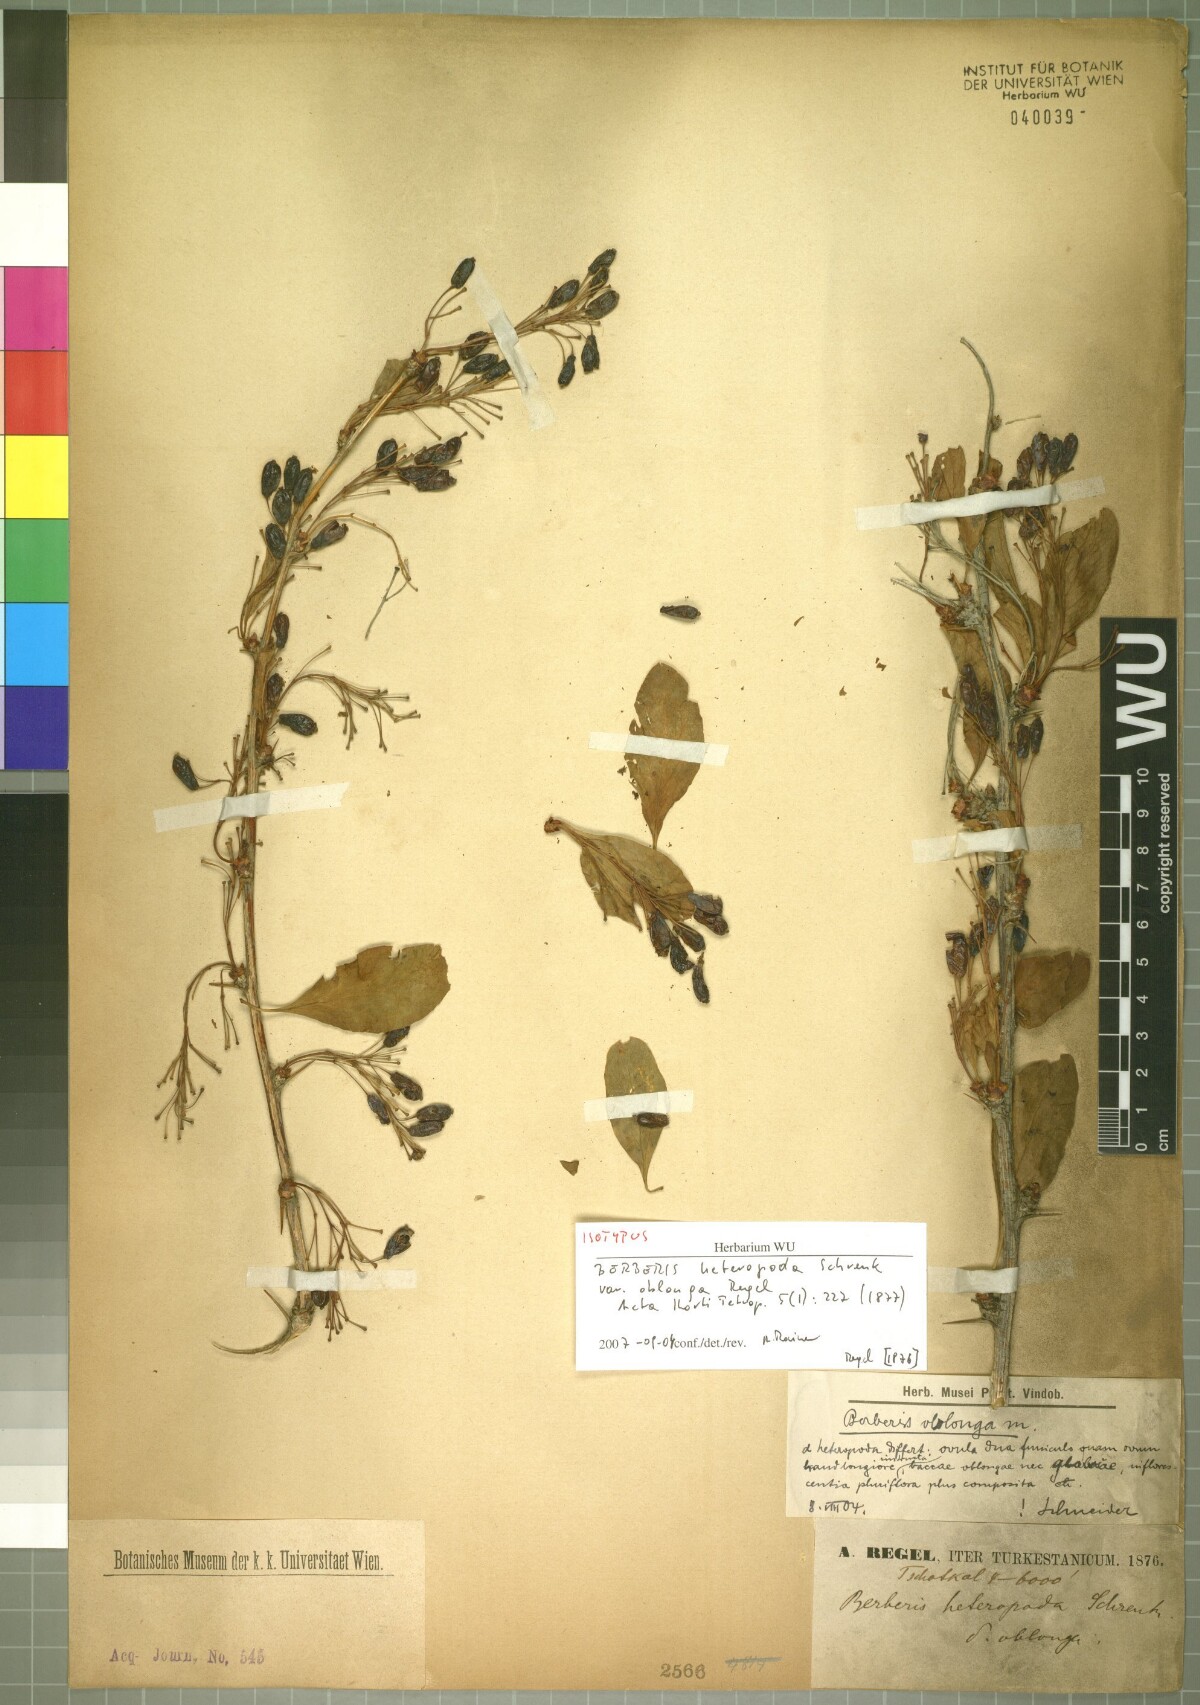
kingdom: Plantae
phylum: Tracheophyta
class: Magnoliopsida
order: Ranunculales
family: Berberidaceae
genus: Berberis
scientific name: Berberis oblonga
